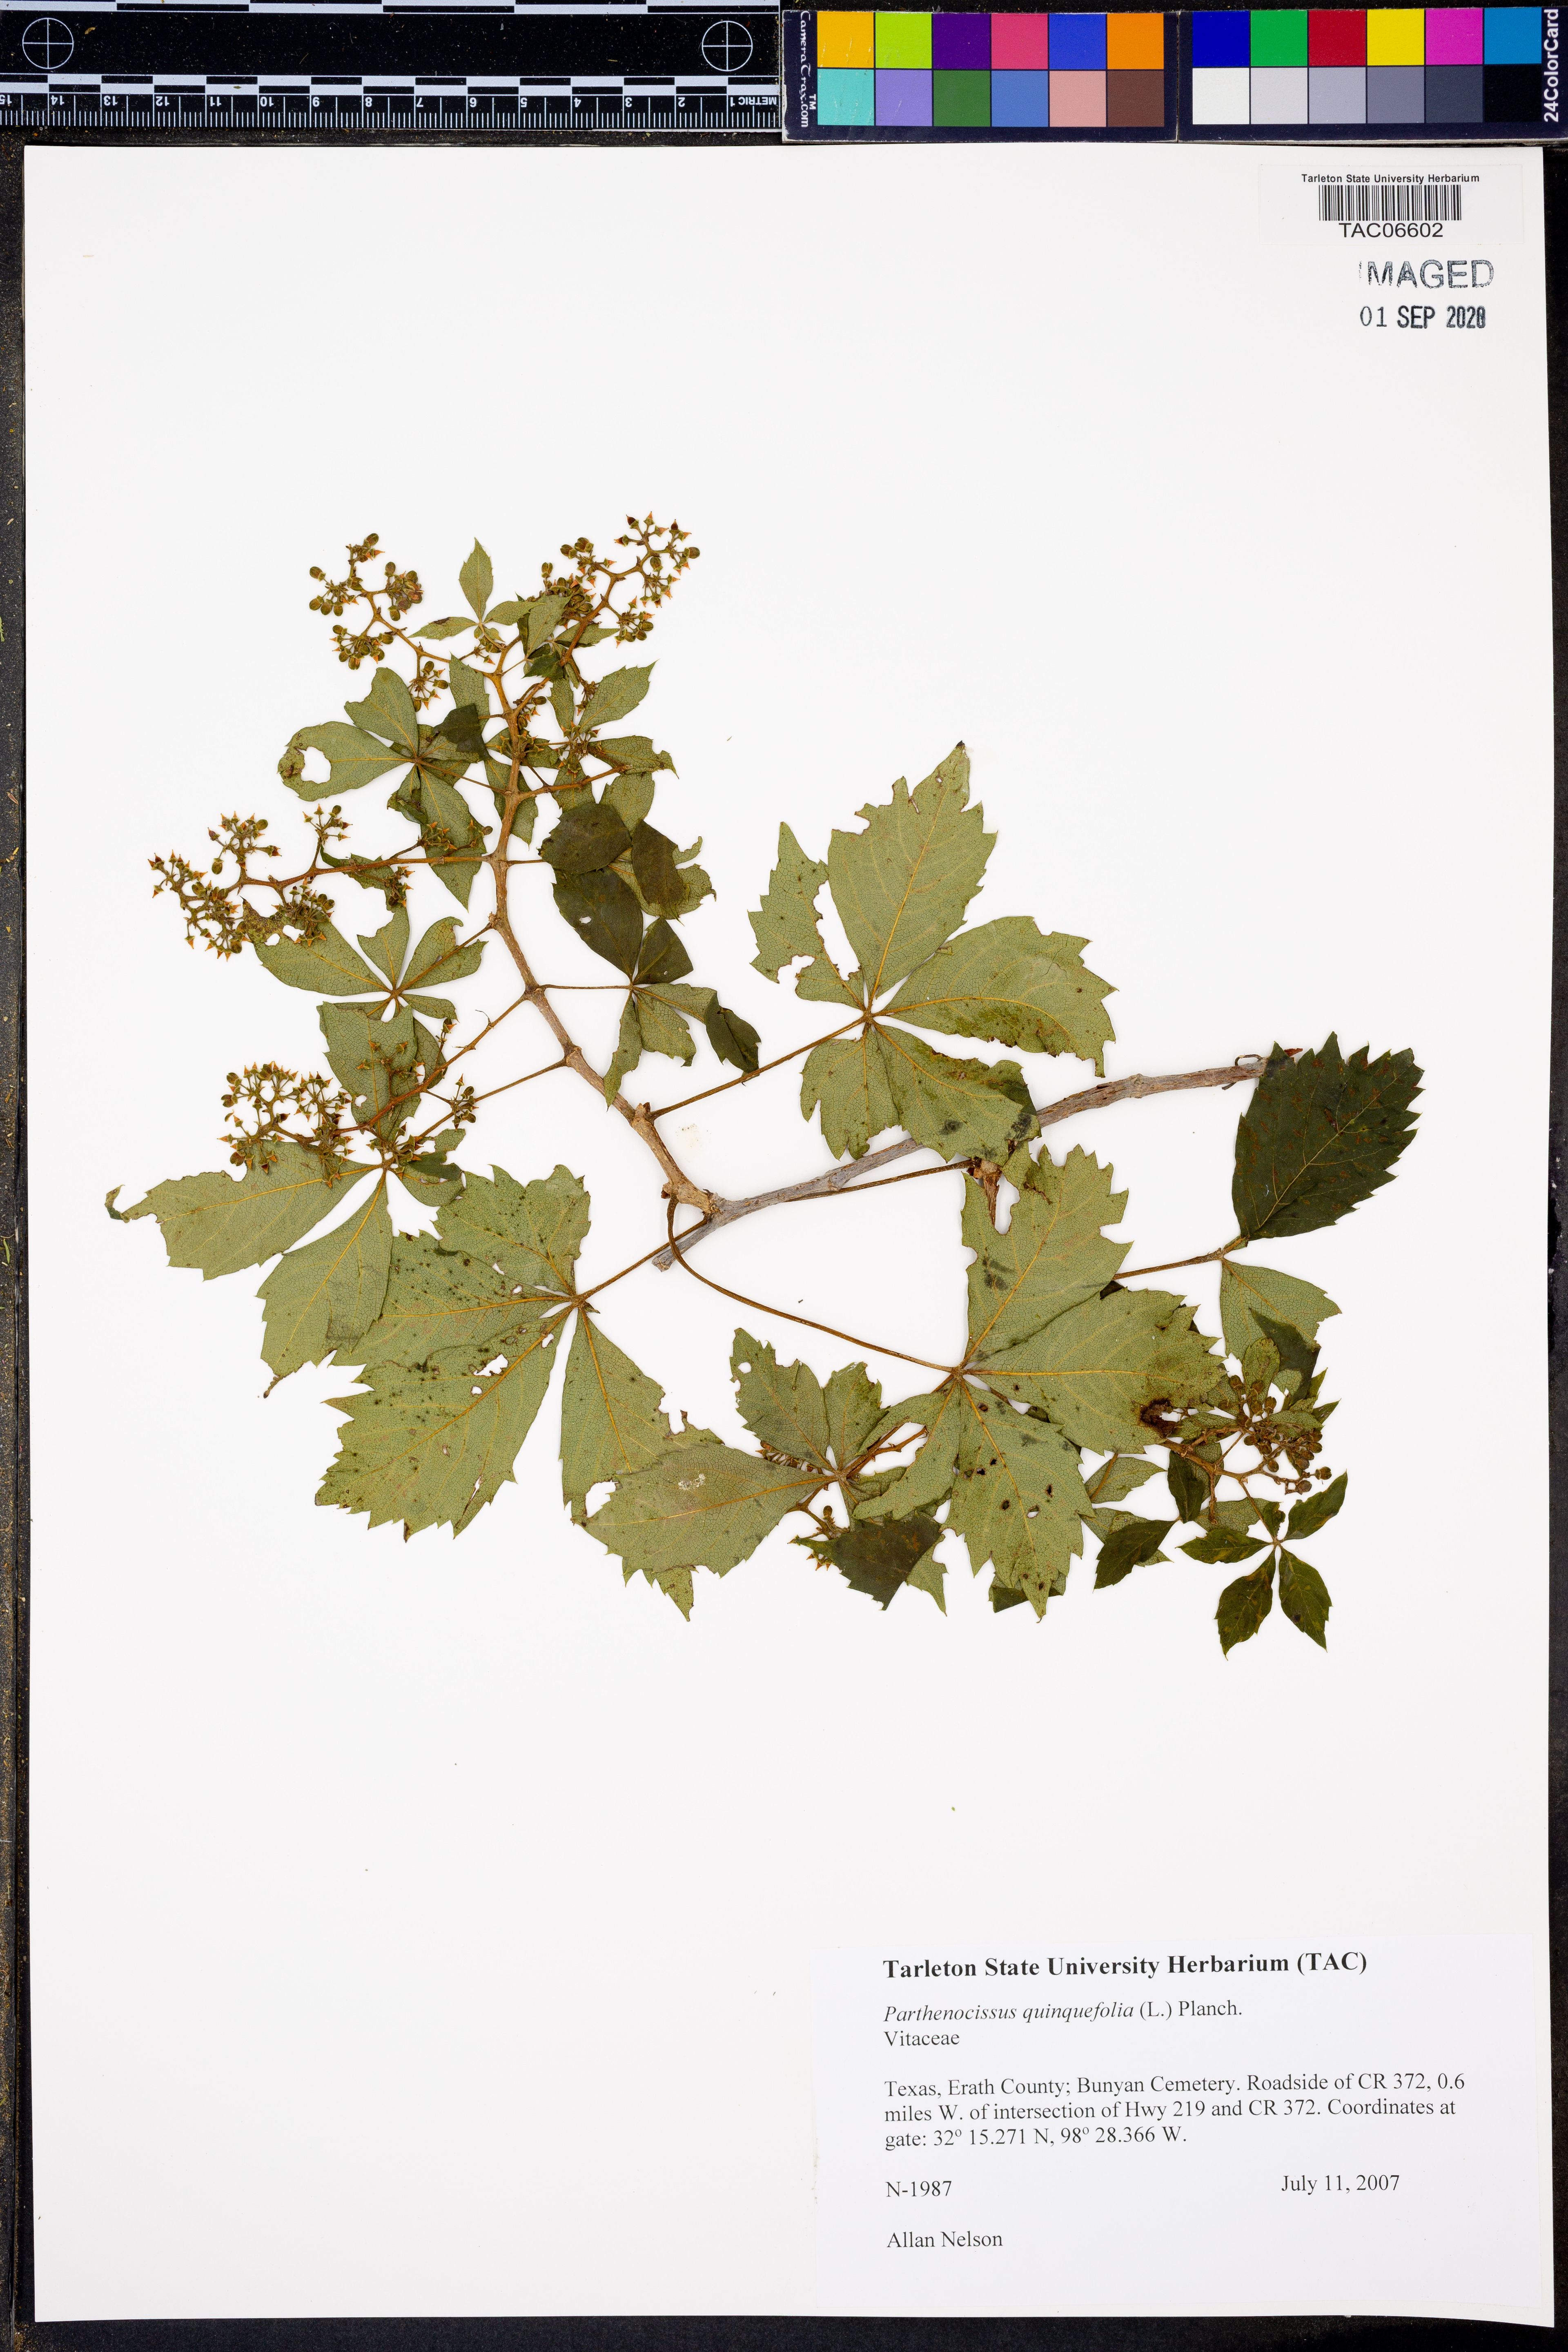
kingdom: Plantae
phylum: Tracheophyta
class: Magnoliopsida
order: Vitales
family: Vitaceae
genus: Parthenocissus
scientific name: Parthenocissus quinquefolia
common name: Virginia-creeper
